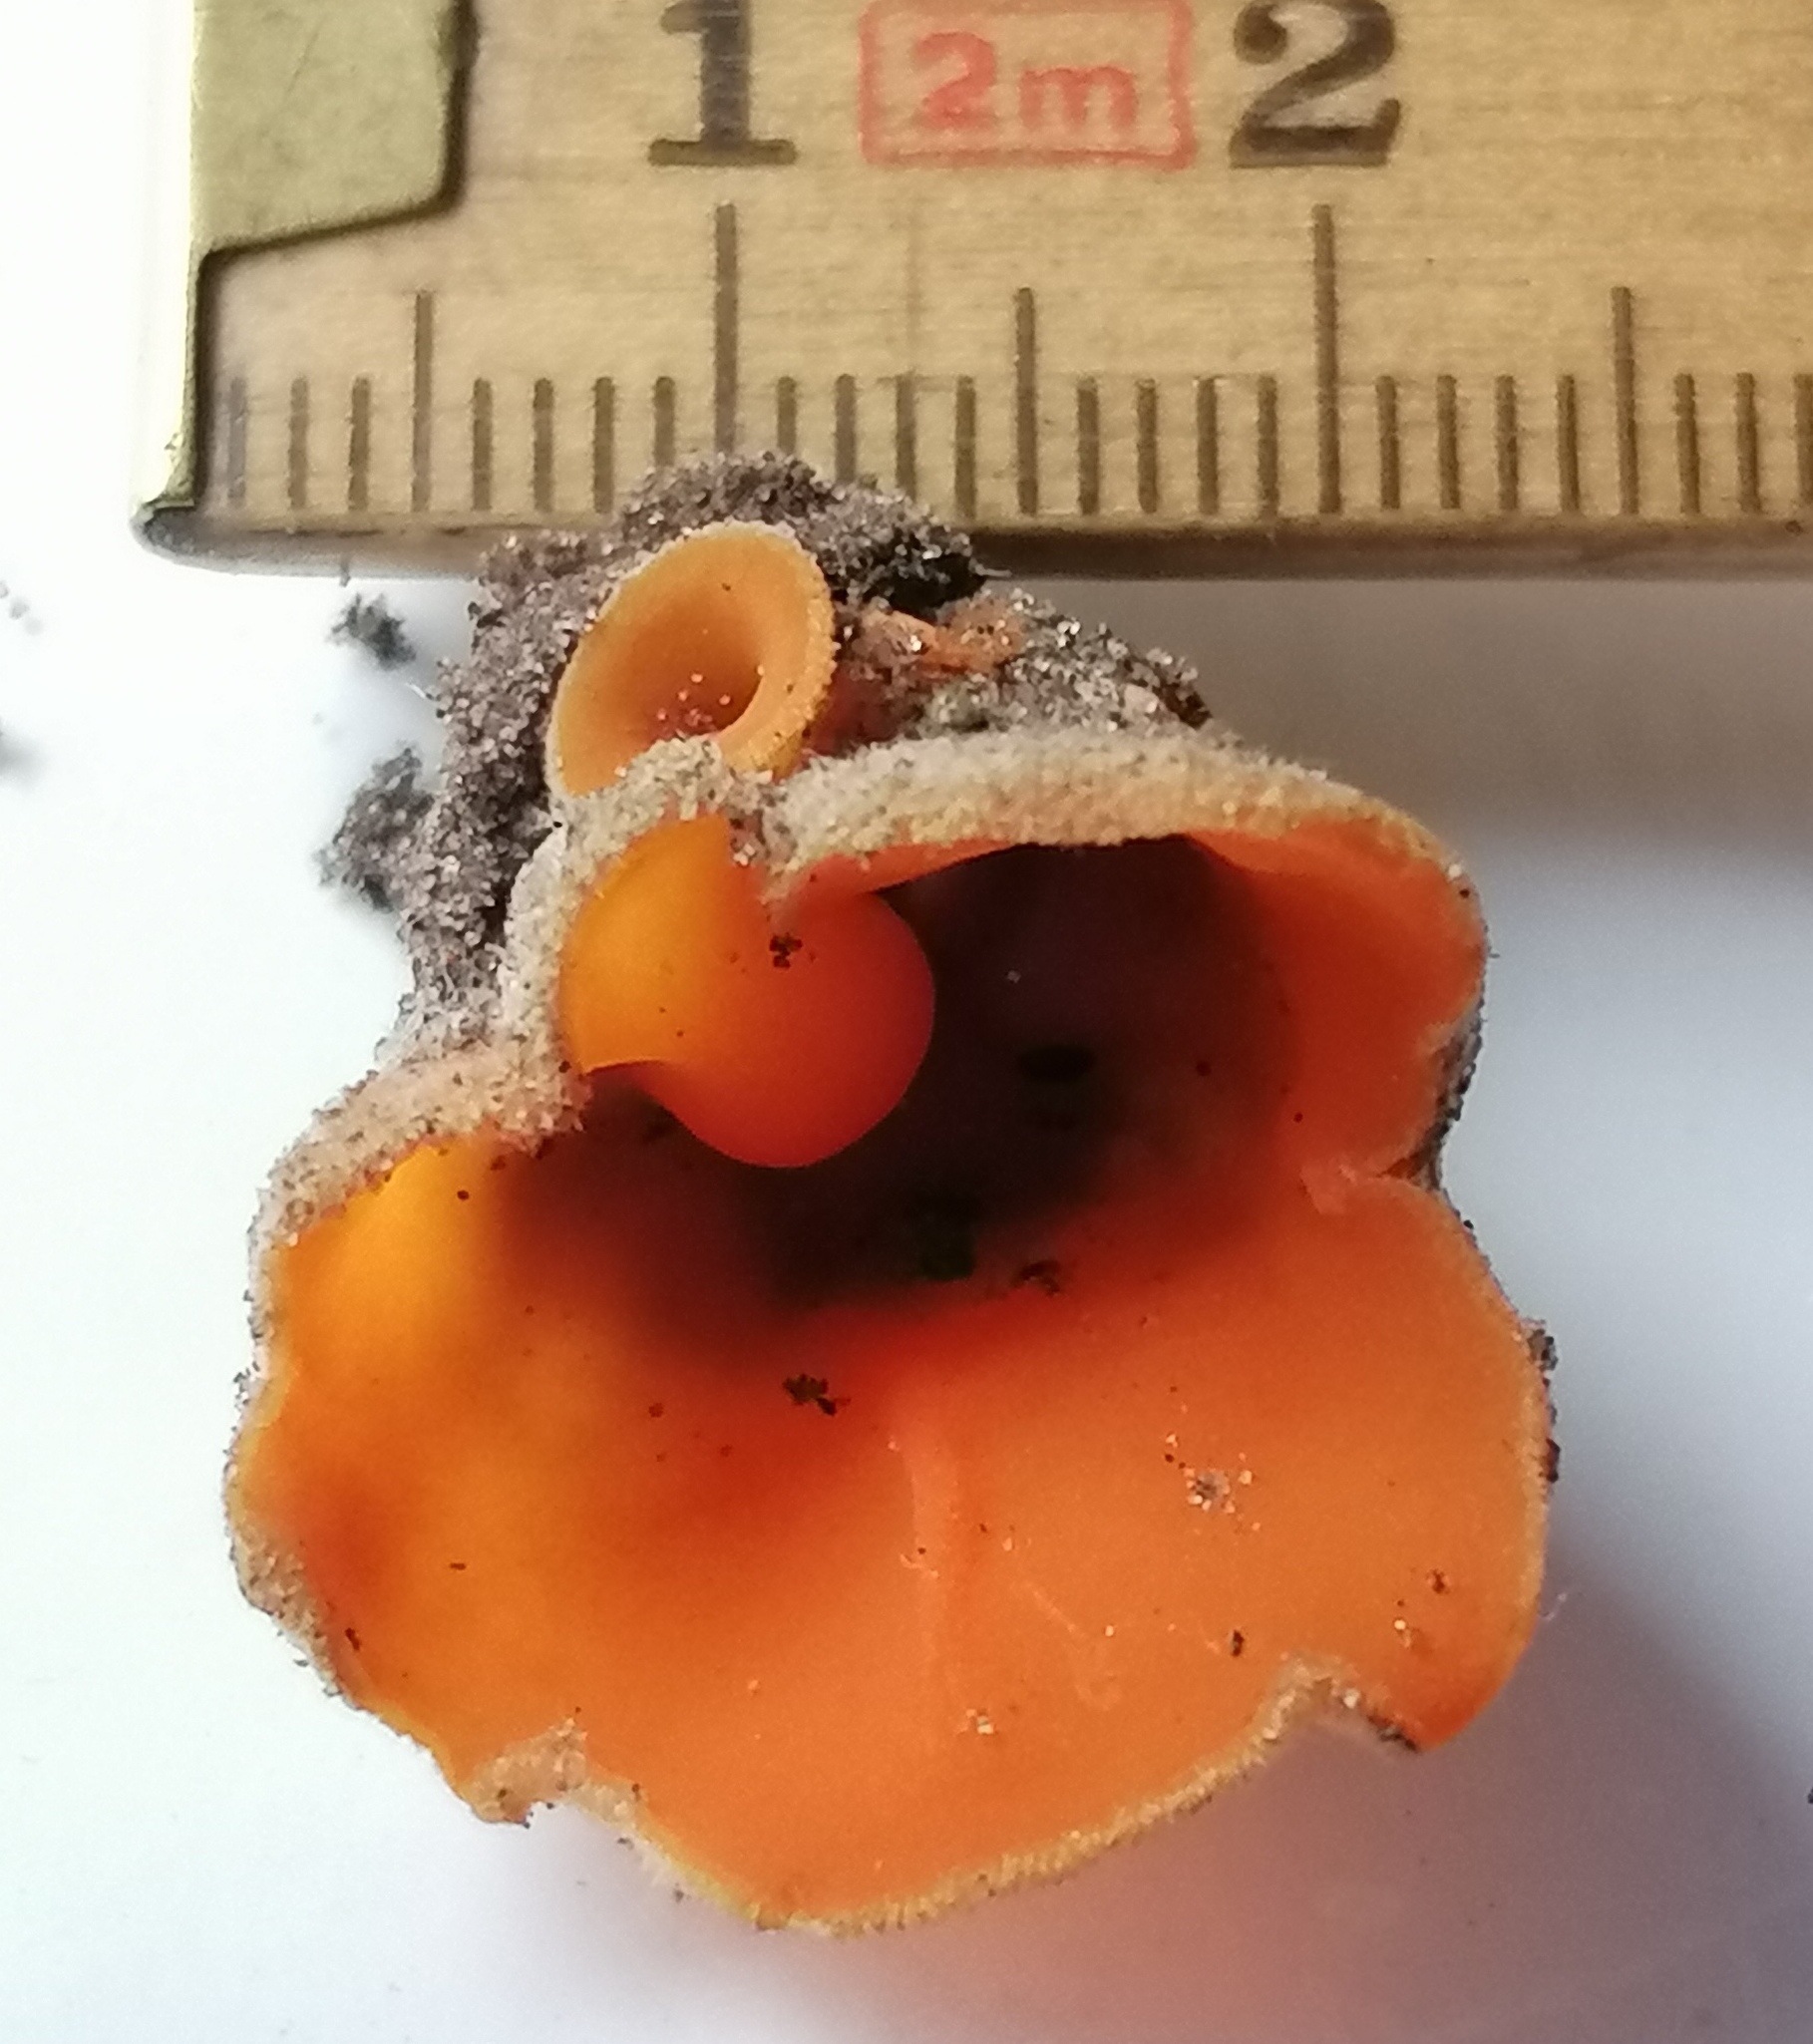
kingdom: Fungi
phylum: Ascomycota
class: Pezizomycetes
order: Pezizales
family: Pyronemataceae
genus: Neottiella
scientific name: Neottiella
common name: mosbæger
